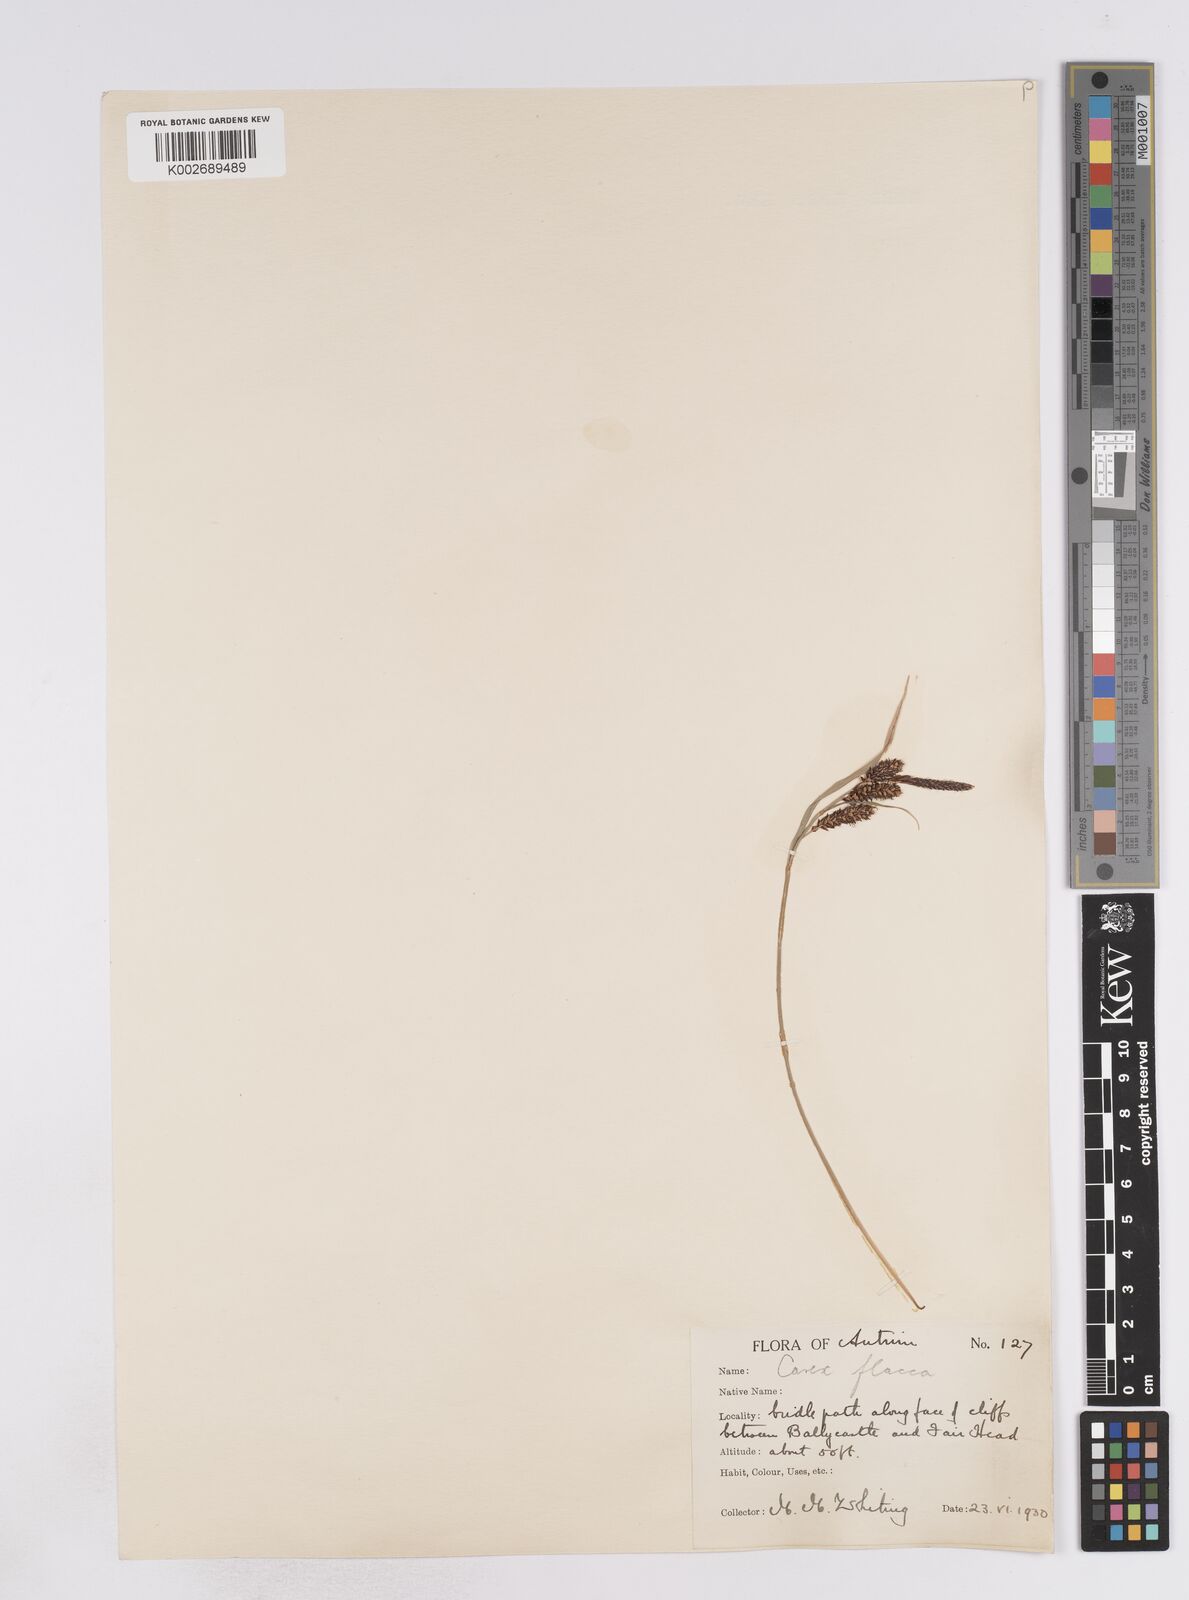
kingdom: Plantae
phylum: Tracheophyta
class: Liliopsida
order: Poales
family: Cyperaceae
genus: Carex
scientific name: Carex flacca
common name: Glaucous sedge
